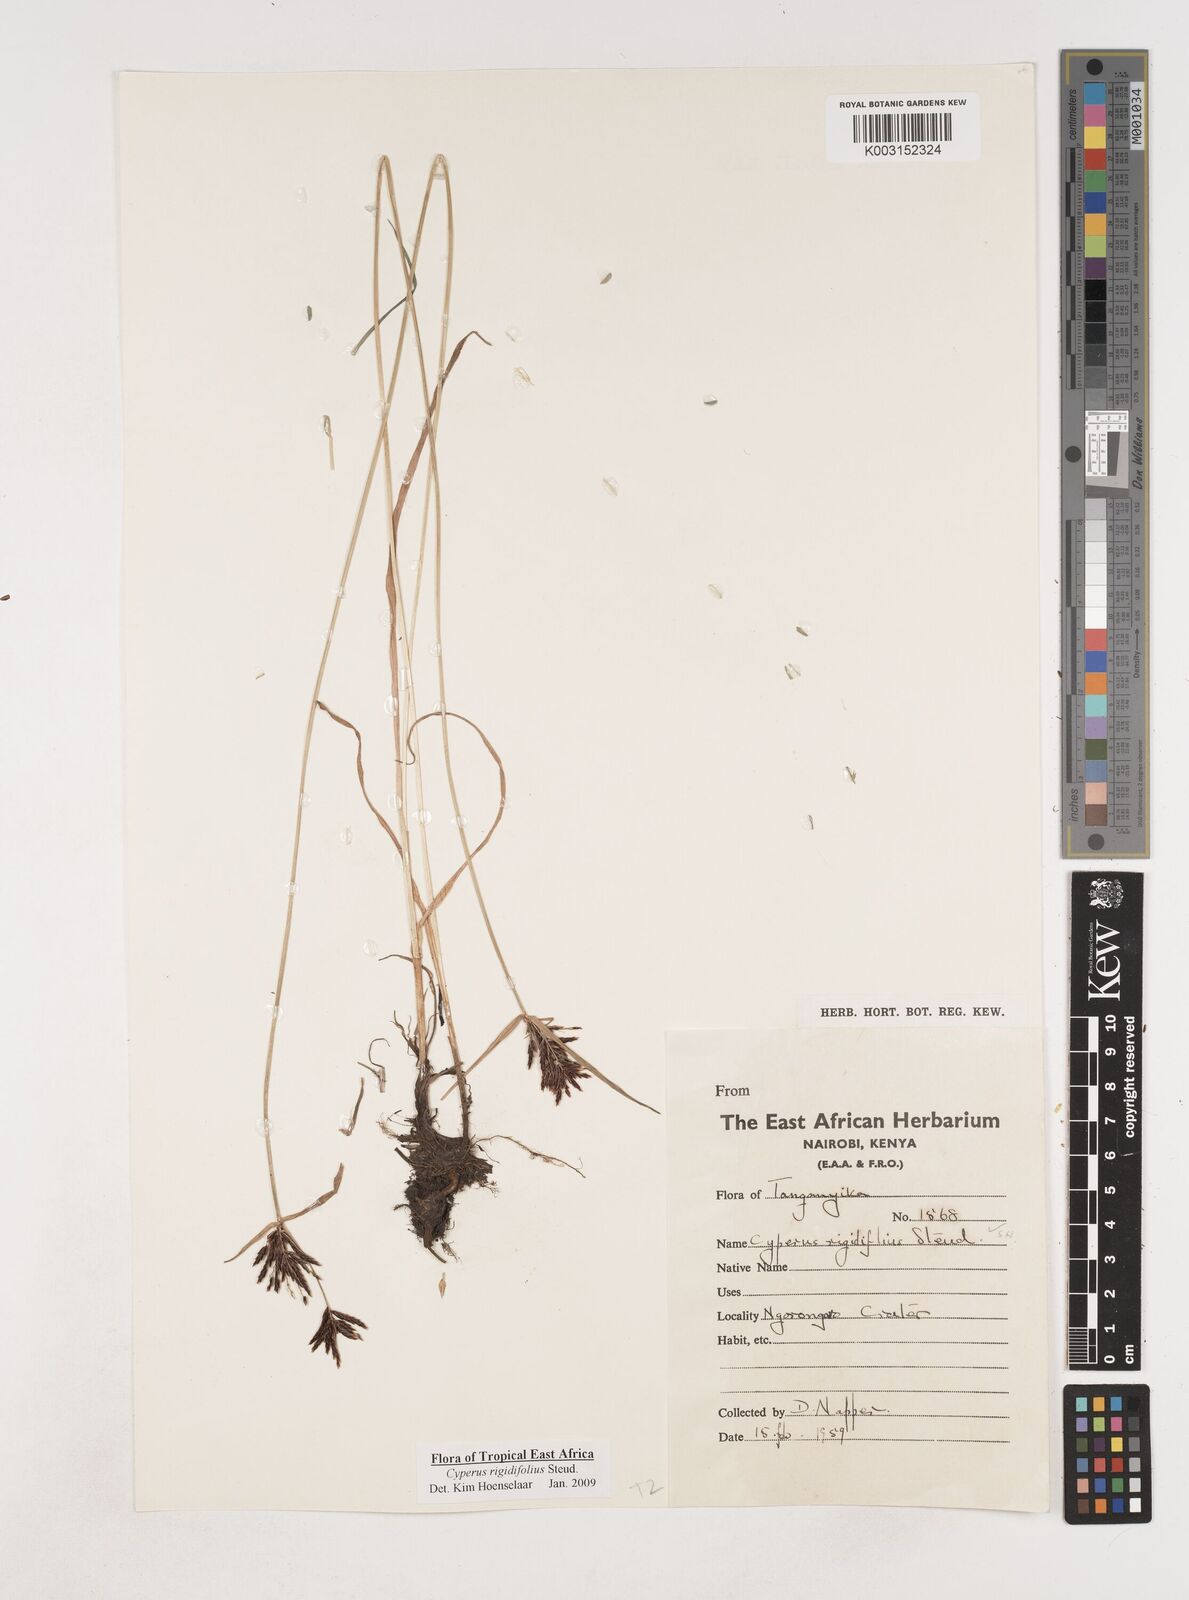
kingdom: Plantae
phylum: Tracheophyta
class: Liliopsida
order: Poales
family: Cyperaceae
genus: Cyperus
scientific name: Cyperus rigidifolius
